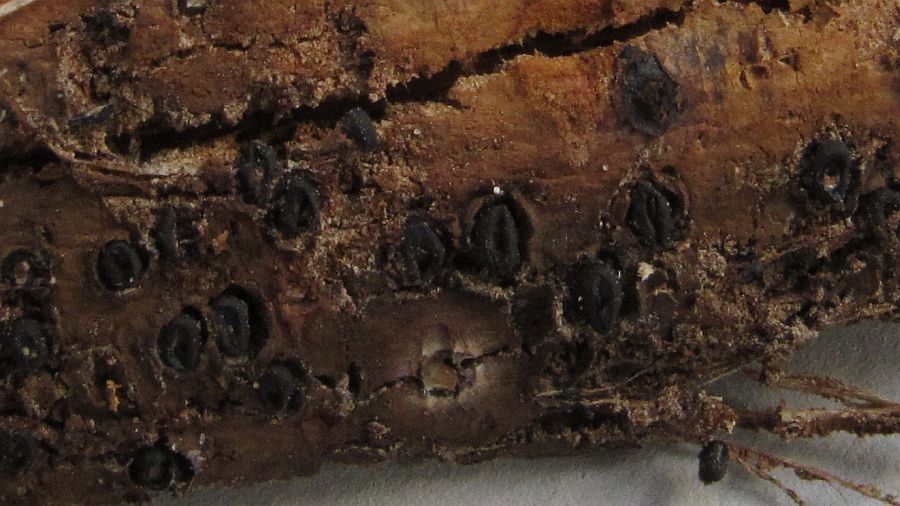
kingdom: Fungi
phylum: Basidiomycota
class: Pucciniomycetes
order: Platygloeales
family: Platygloeaceae
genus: Platygloea
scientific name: Platygloea disciformis
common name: linde-slimklat
